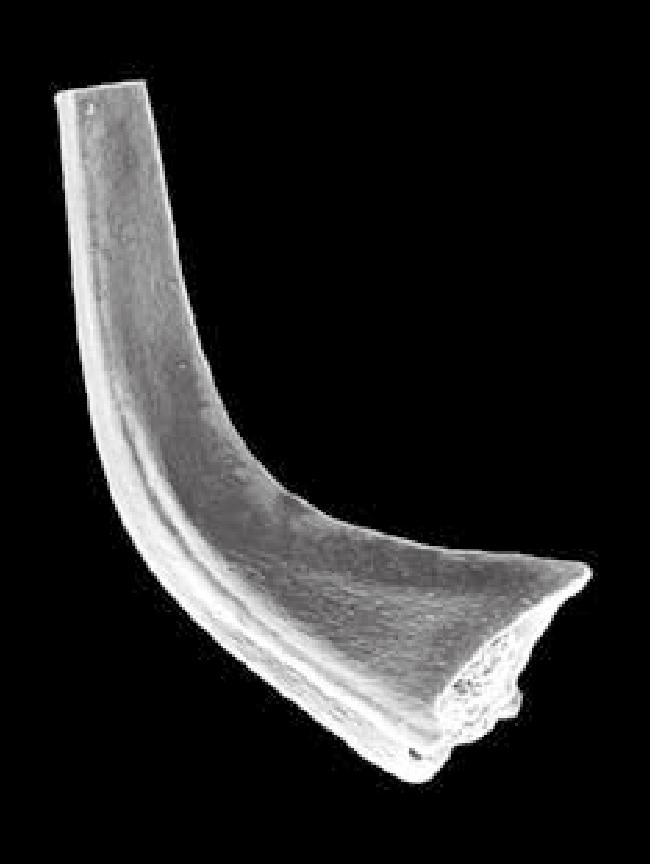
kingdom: Animalia
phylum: Chordata
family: Acodontidae
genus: Tripodus
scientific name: Tripodus
